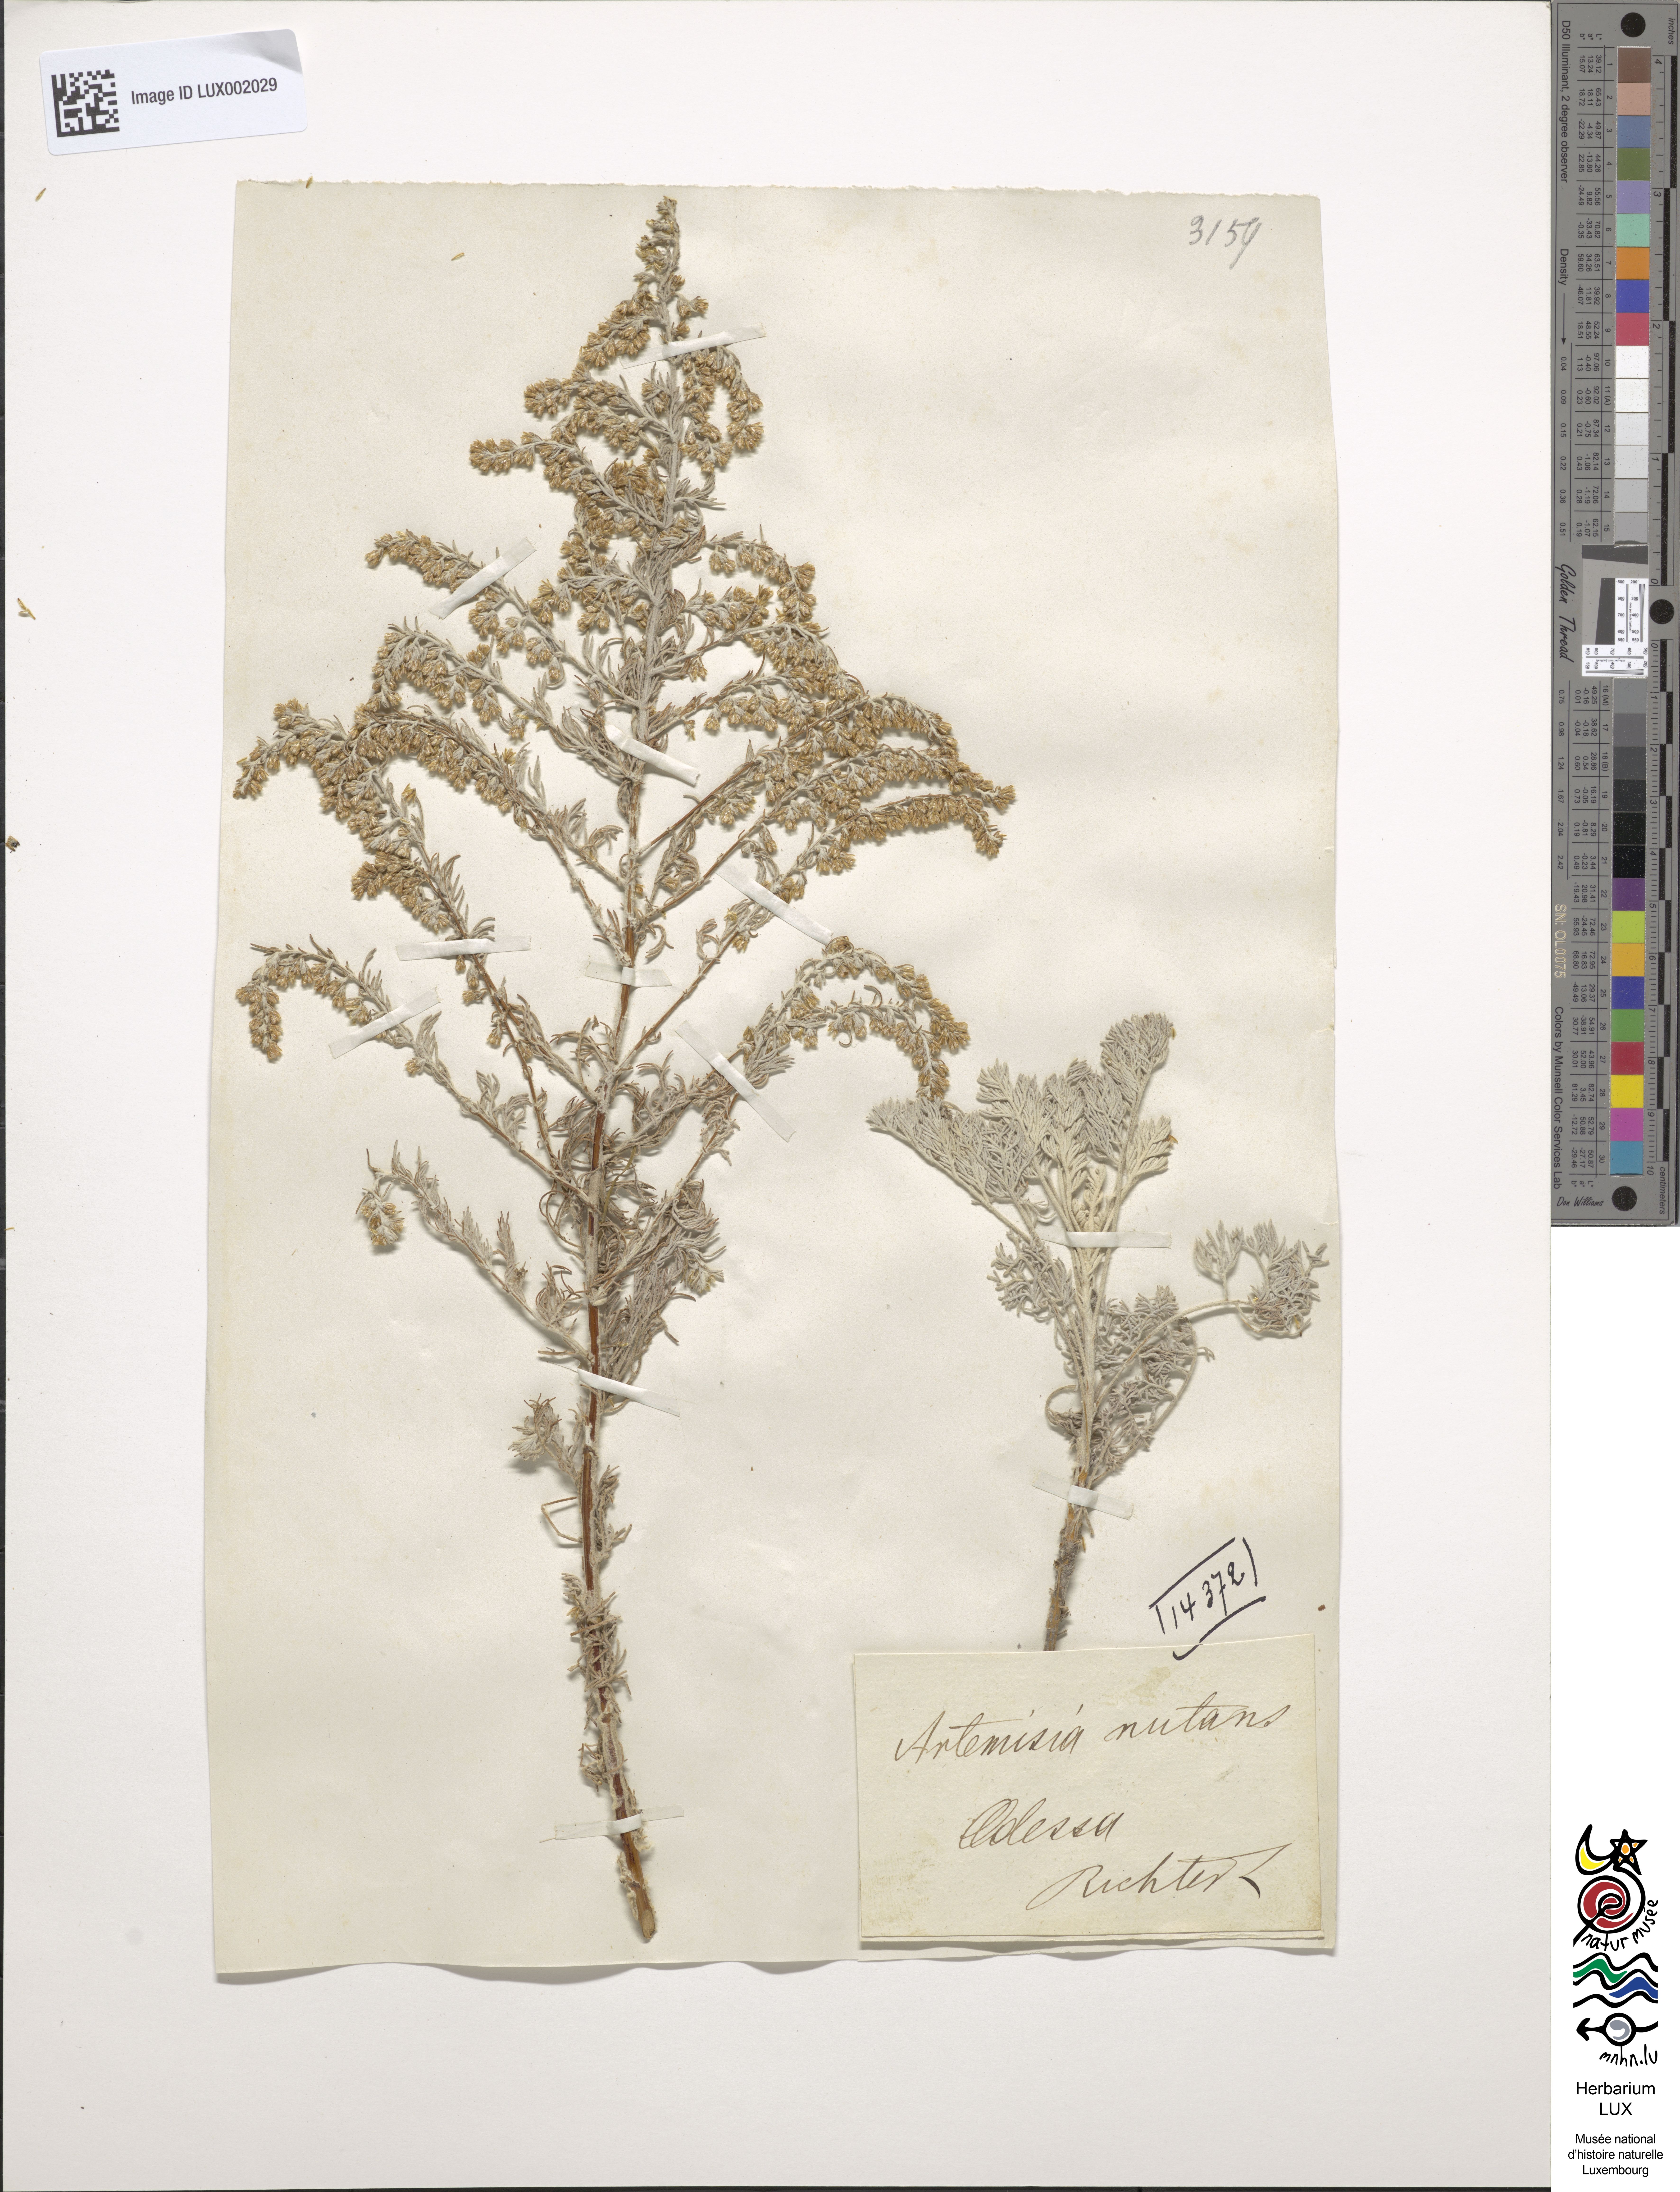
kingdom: Plantae
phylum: Tracheophyta
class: Magnoliopsida
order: Asterales
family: Asteraceae
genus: Artemisia
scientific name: Artemisia nutans
